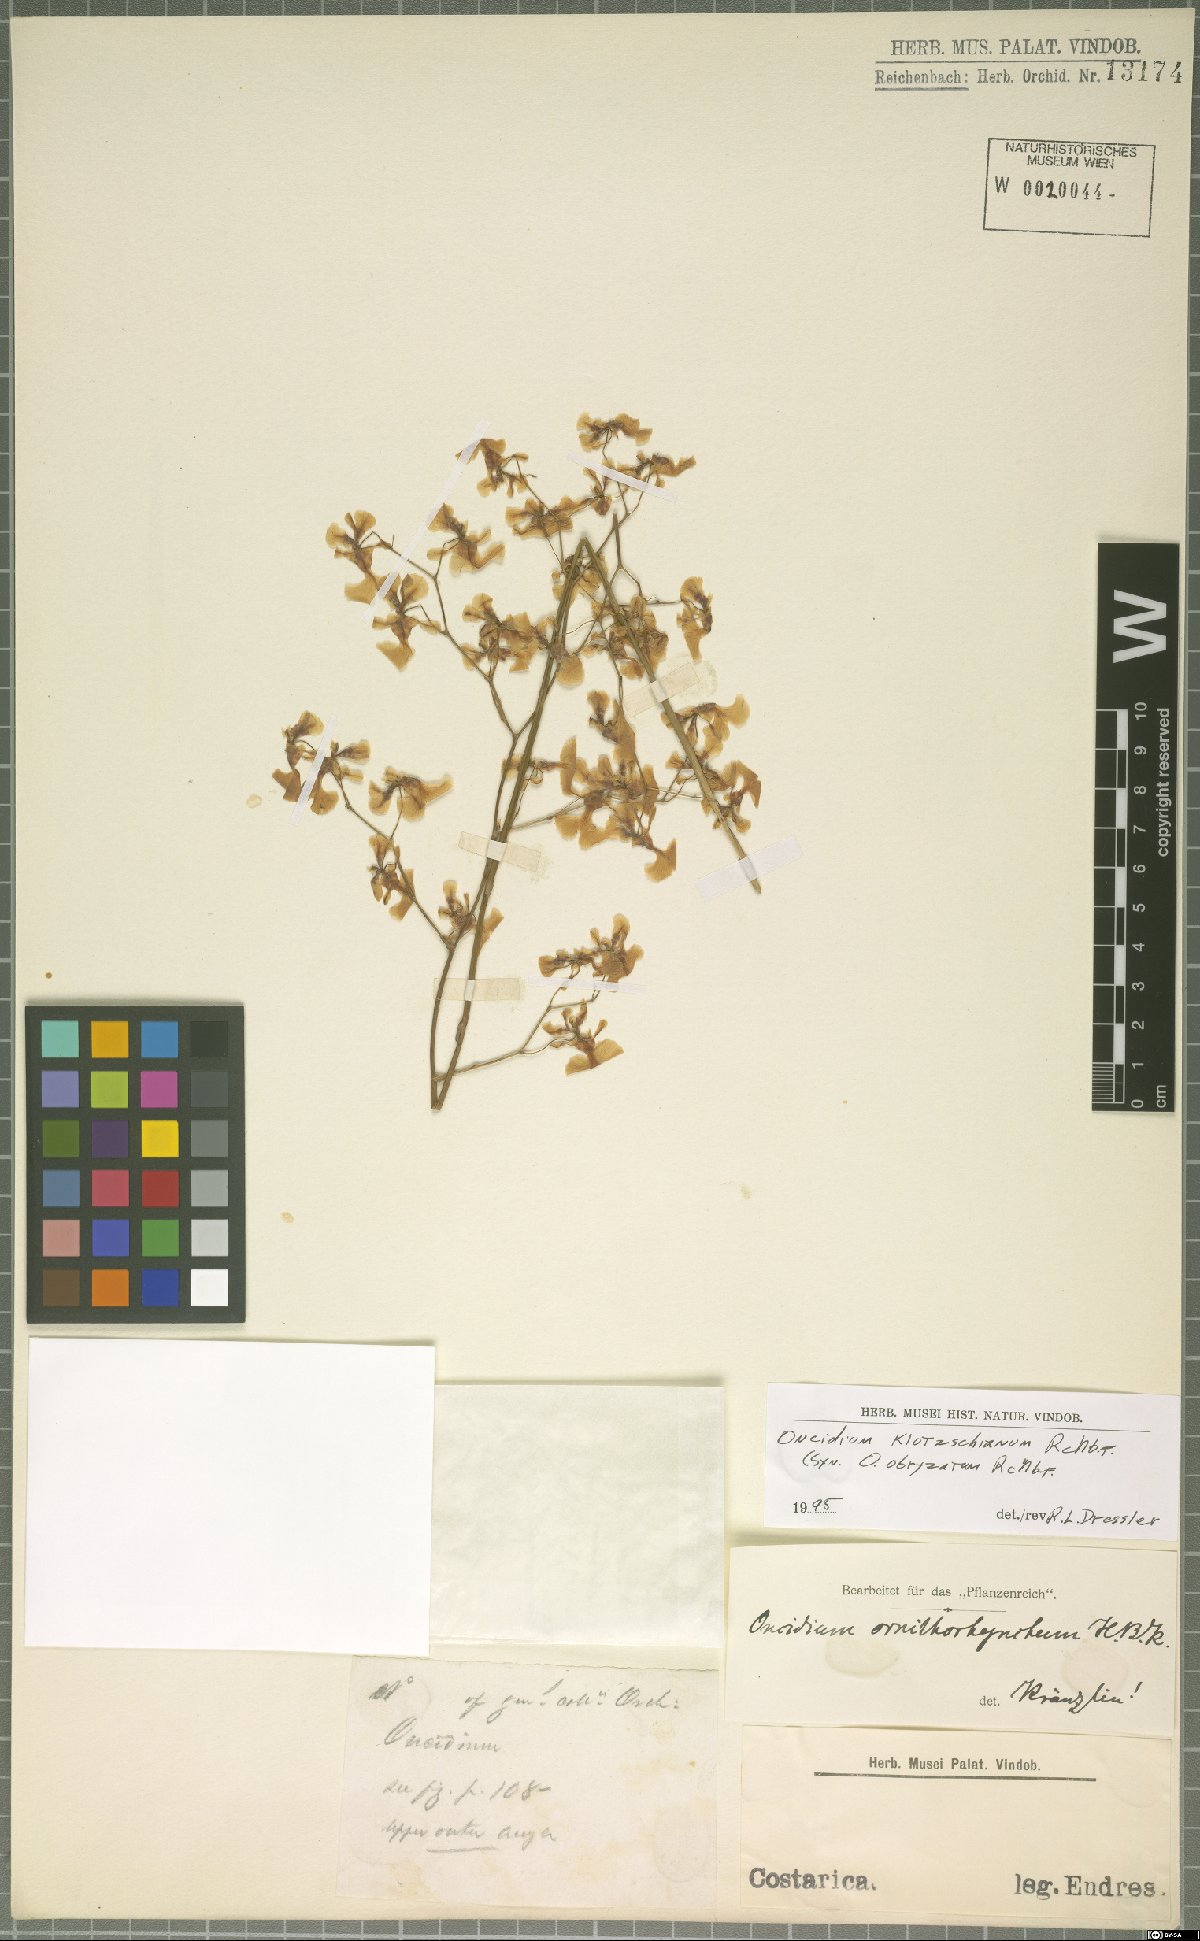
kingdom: Plantae
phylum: Tracheophyta
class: Liliopsida
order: Asparagales
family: Orchidaceae
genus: Oncidium
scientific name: Oncidium nebulosum
